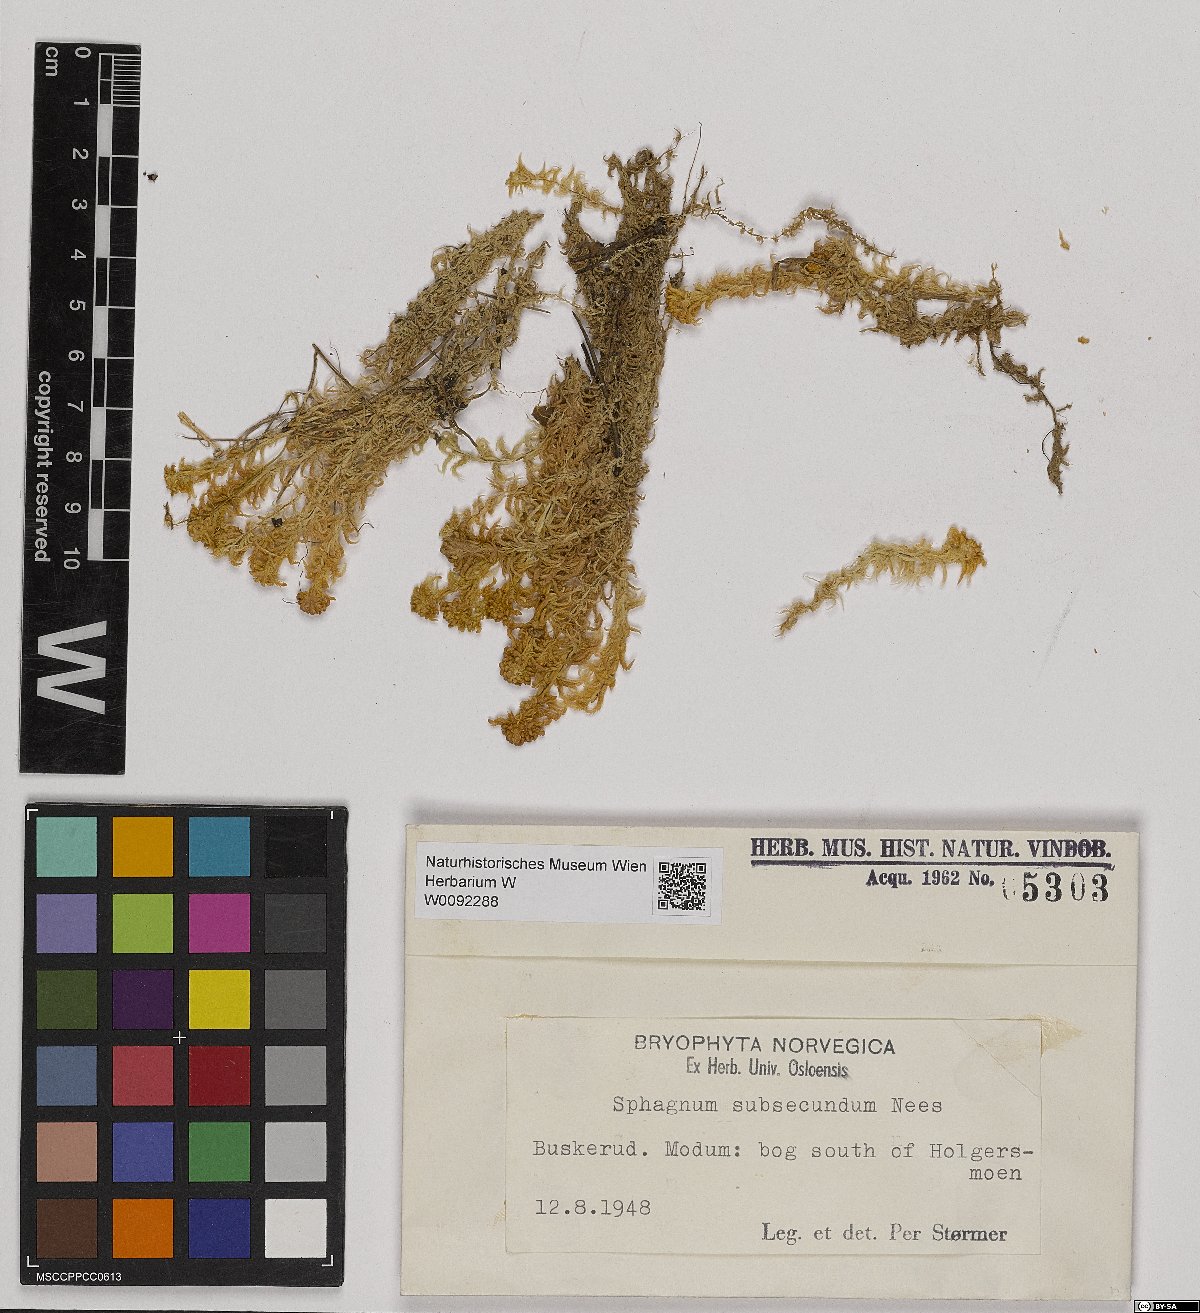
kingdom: Plantae
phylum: Bryophyta
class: Sphagnopsida
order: Sphagnales
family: Sphagnaceae
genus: Sphagnum
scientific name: Sphagnum subsecundum
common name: Orange peat moss
